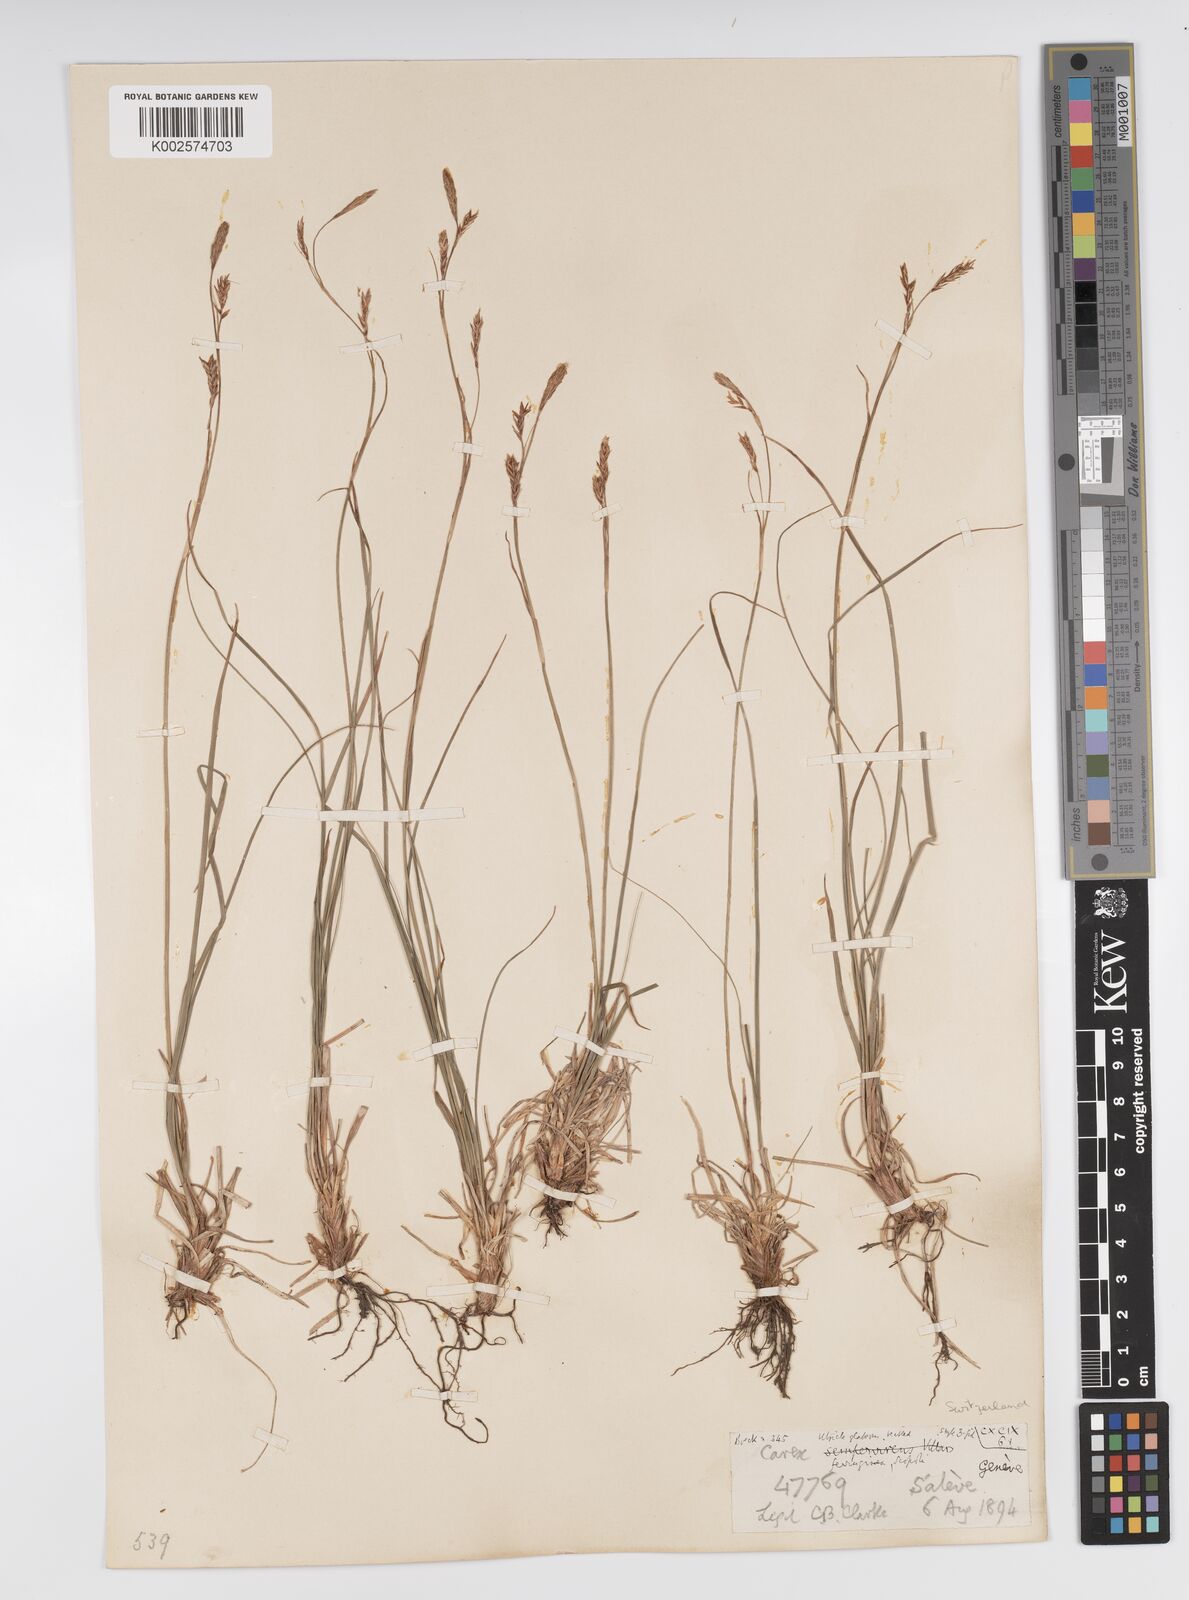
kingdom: Plantae
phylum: Tracheophyta
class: Liliopsida
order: Poales
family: Cyperaceae
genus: Carex
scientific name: Carex ferruginea
